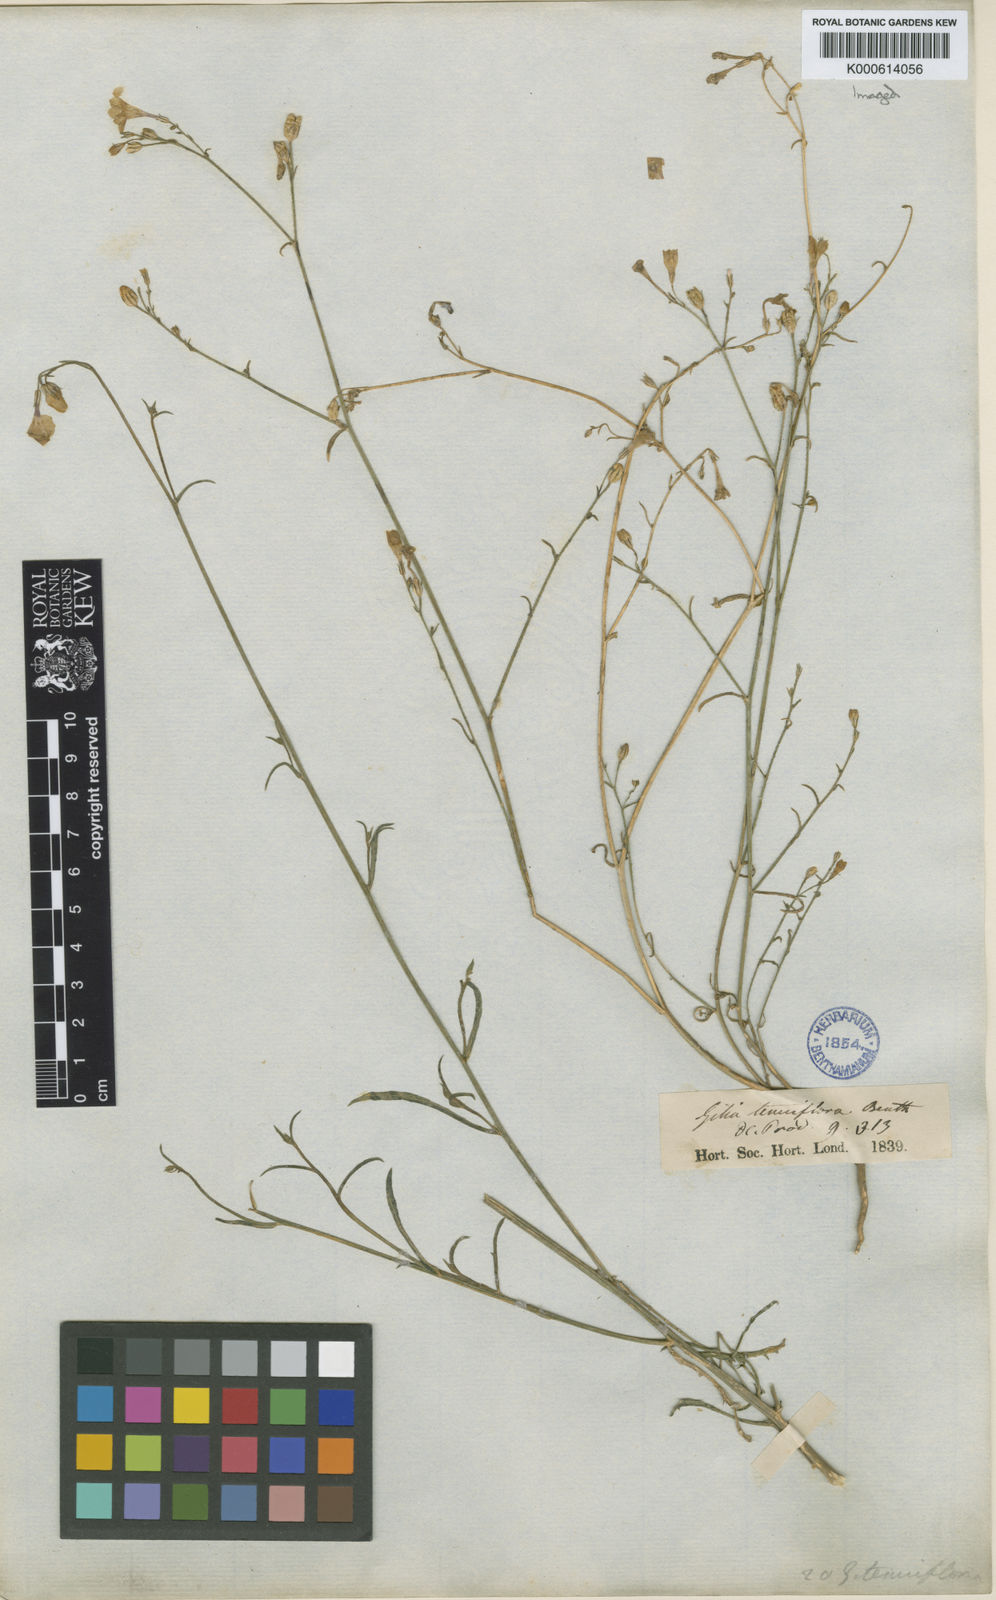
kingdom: Plantae
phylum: Tracheophyta
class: Magnoliopsida
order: Ericales
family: Polemoniaceae
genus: Gilia
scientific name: Gilia tenuiflora
